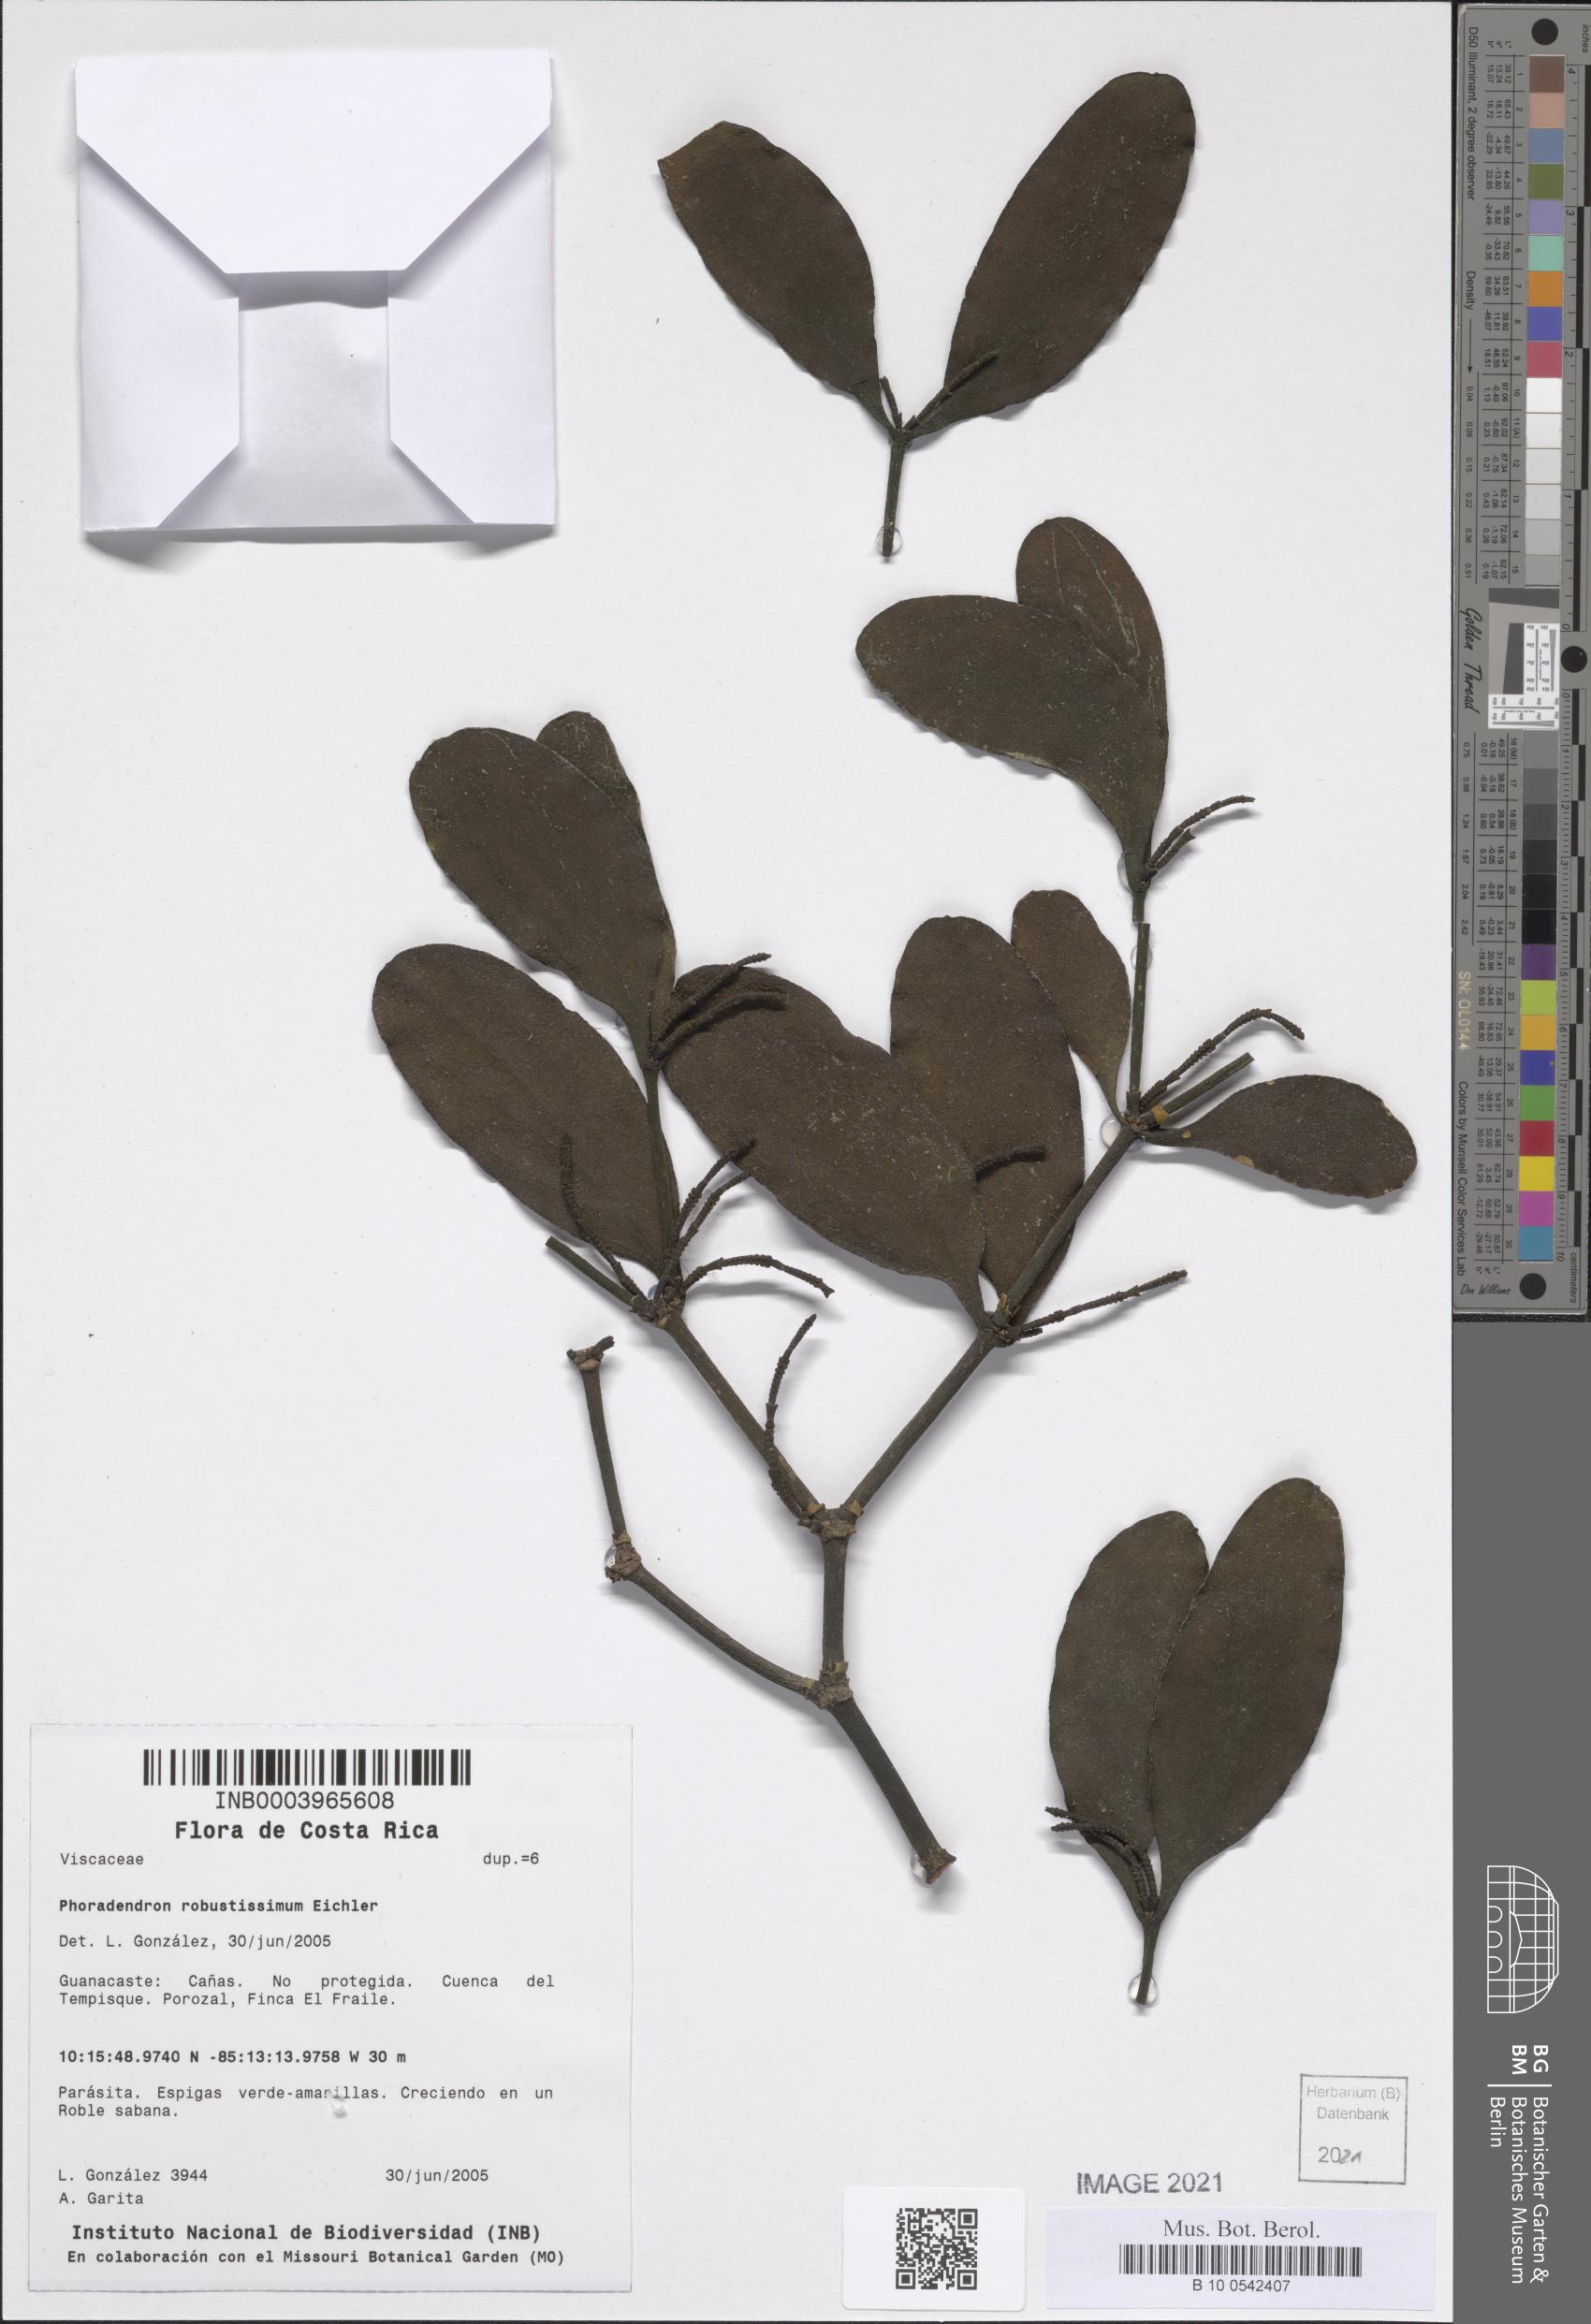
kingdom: Plantae
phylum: Tracheophyta
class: Magnoliopsida
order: Santalales
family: Viscaceae
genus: Phoradendron
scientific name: Phoradendron robustissimum
